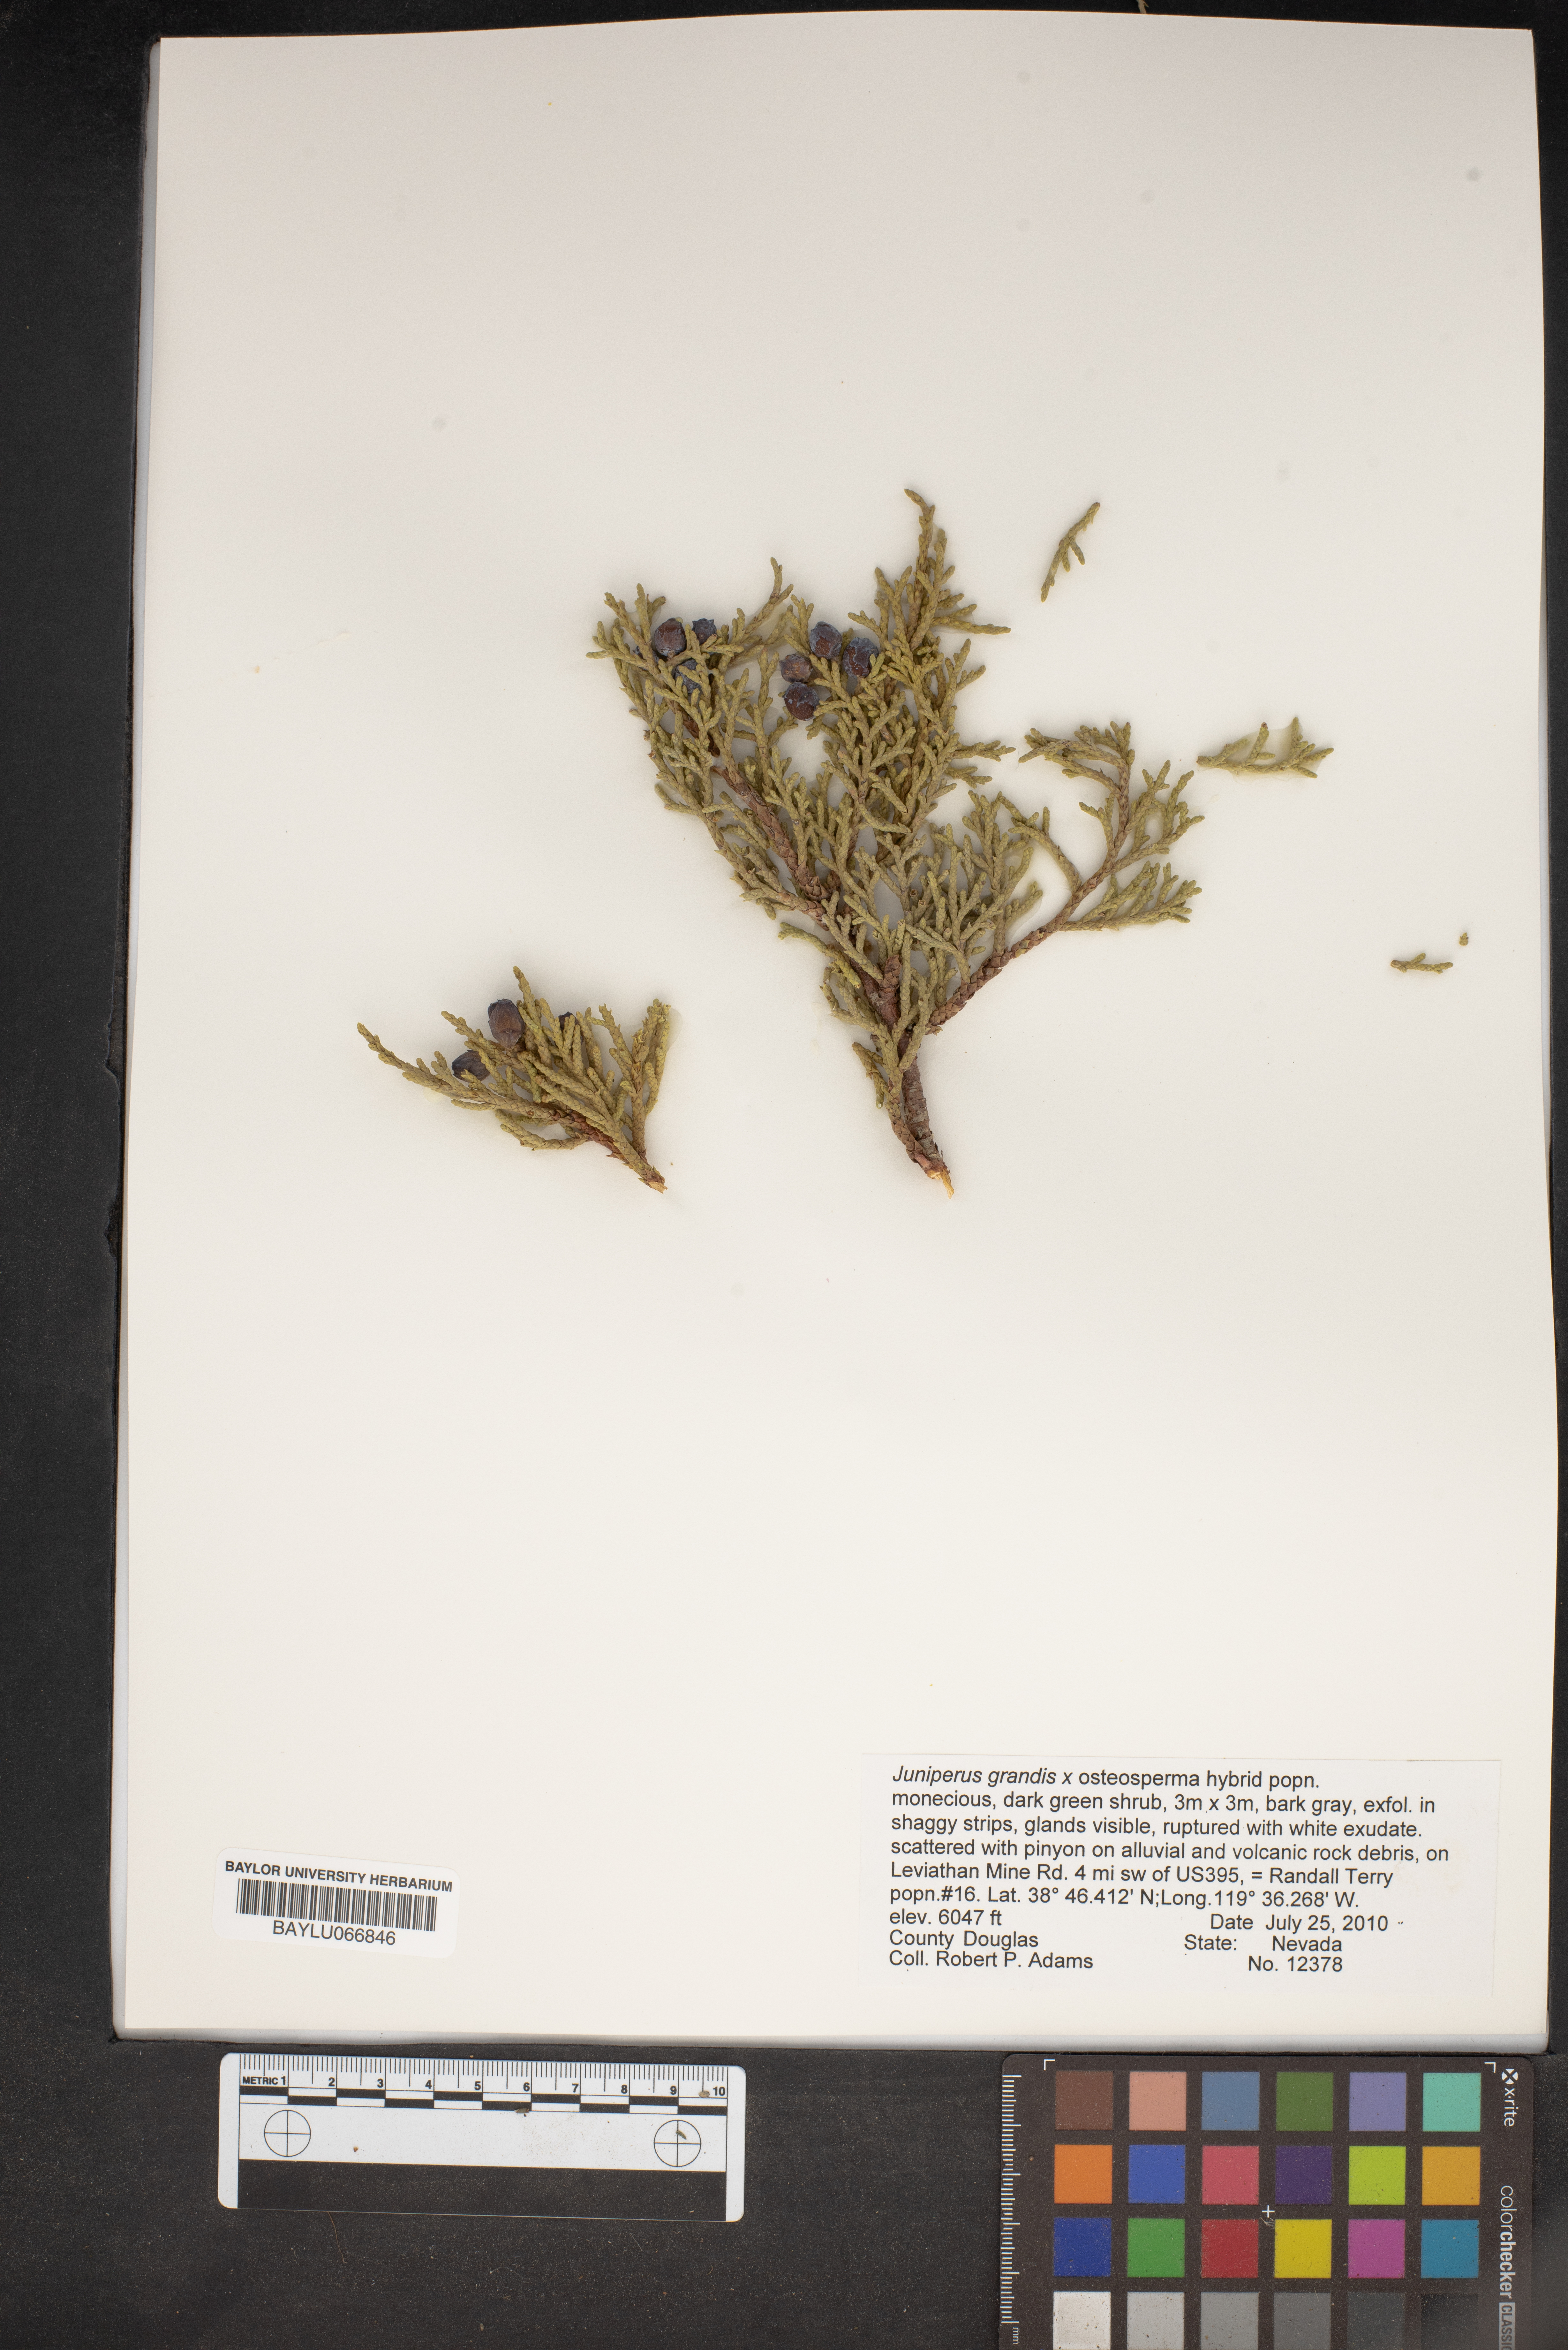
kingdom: Plantae
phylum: Tracheophyta
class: Pinopsida
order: Pinales
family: Cupressaceae
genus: Juniperus
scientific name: Juniperus occidentalis
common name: Western juniper
